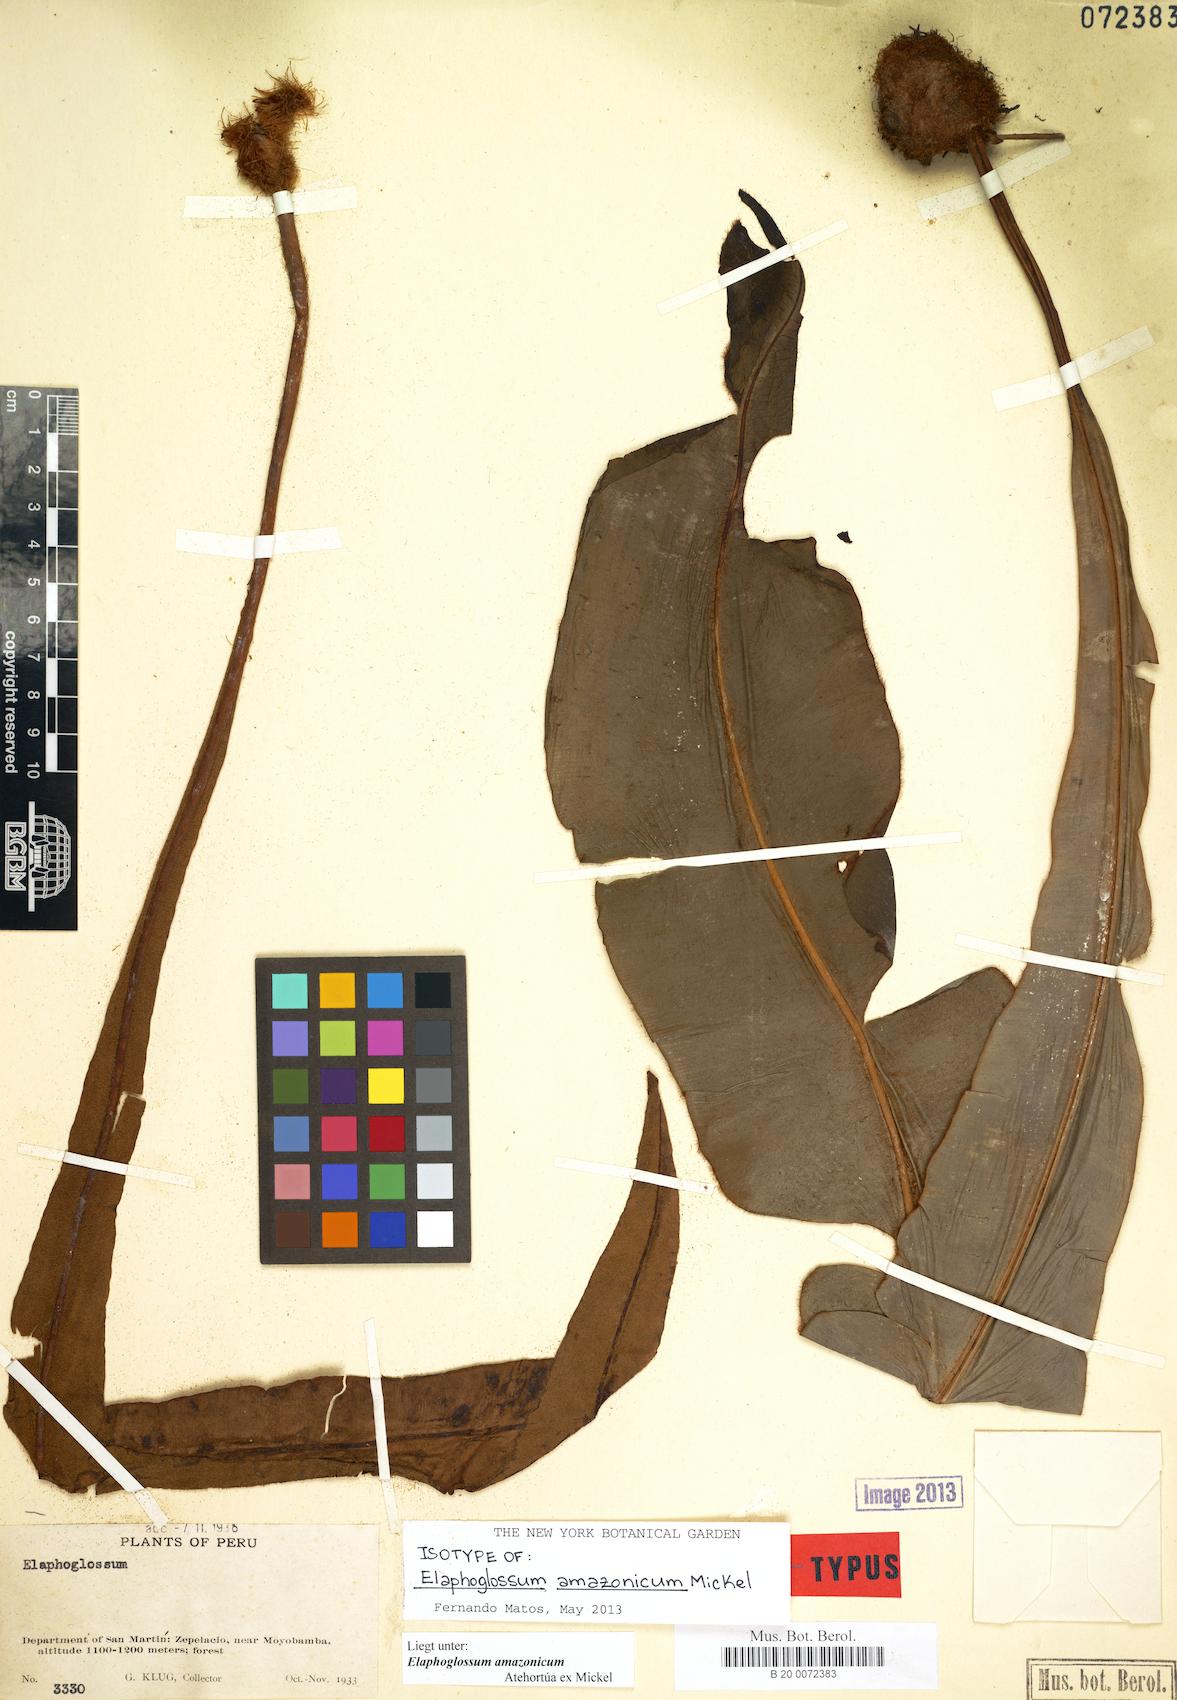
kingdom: Plantae
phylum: Tracheophyta
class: Polypodiopsida
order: Polypodiales
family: Dryopteridaceae
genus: Elaphoglossum
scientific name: Elaphoglossum amazonicum
